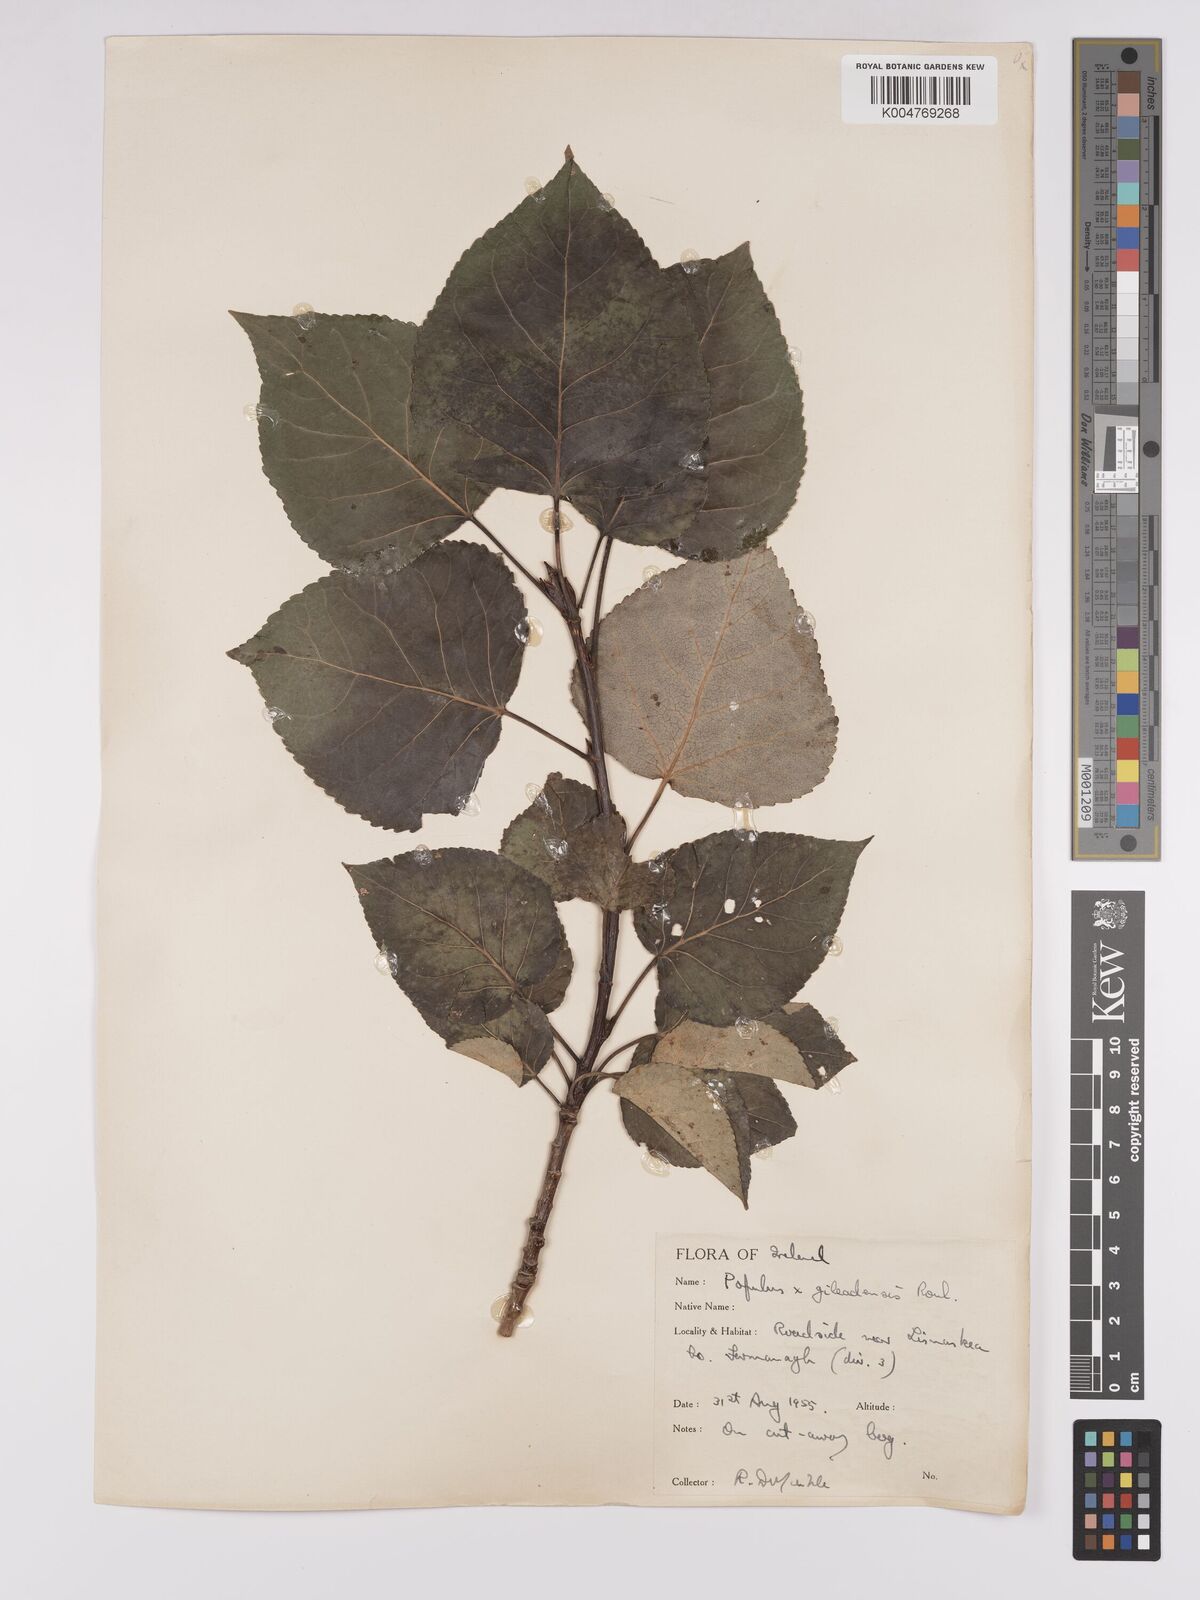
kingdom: Plantae
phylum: Tracheophyta
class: Magnoliopsida
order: Malpighiales
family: Salicaceae
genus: Populus
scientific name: Populus jackii
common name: Balm-of-gilead
